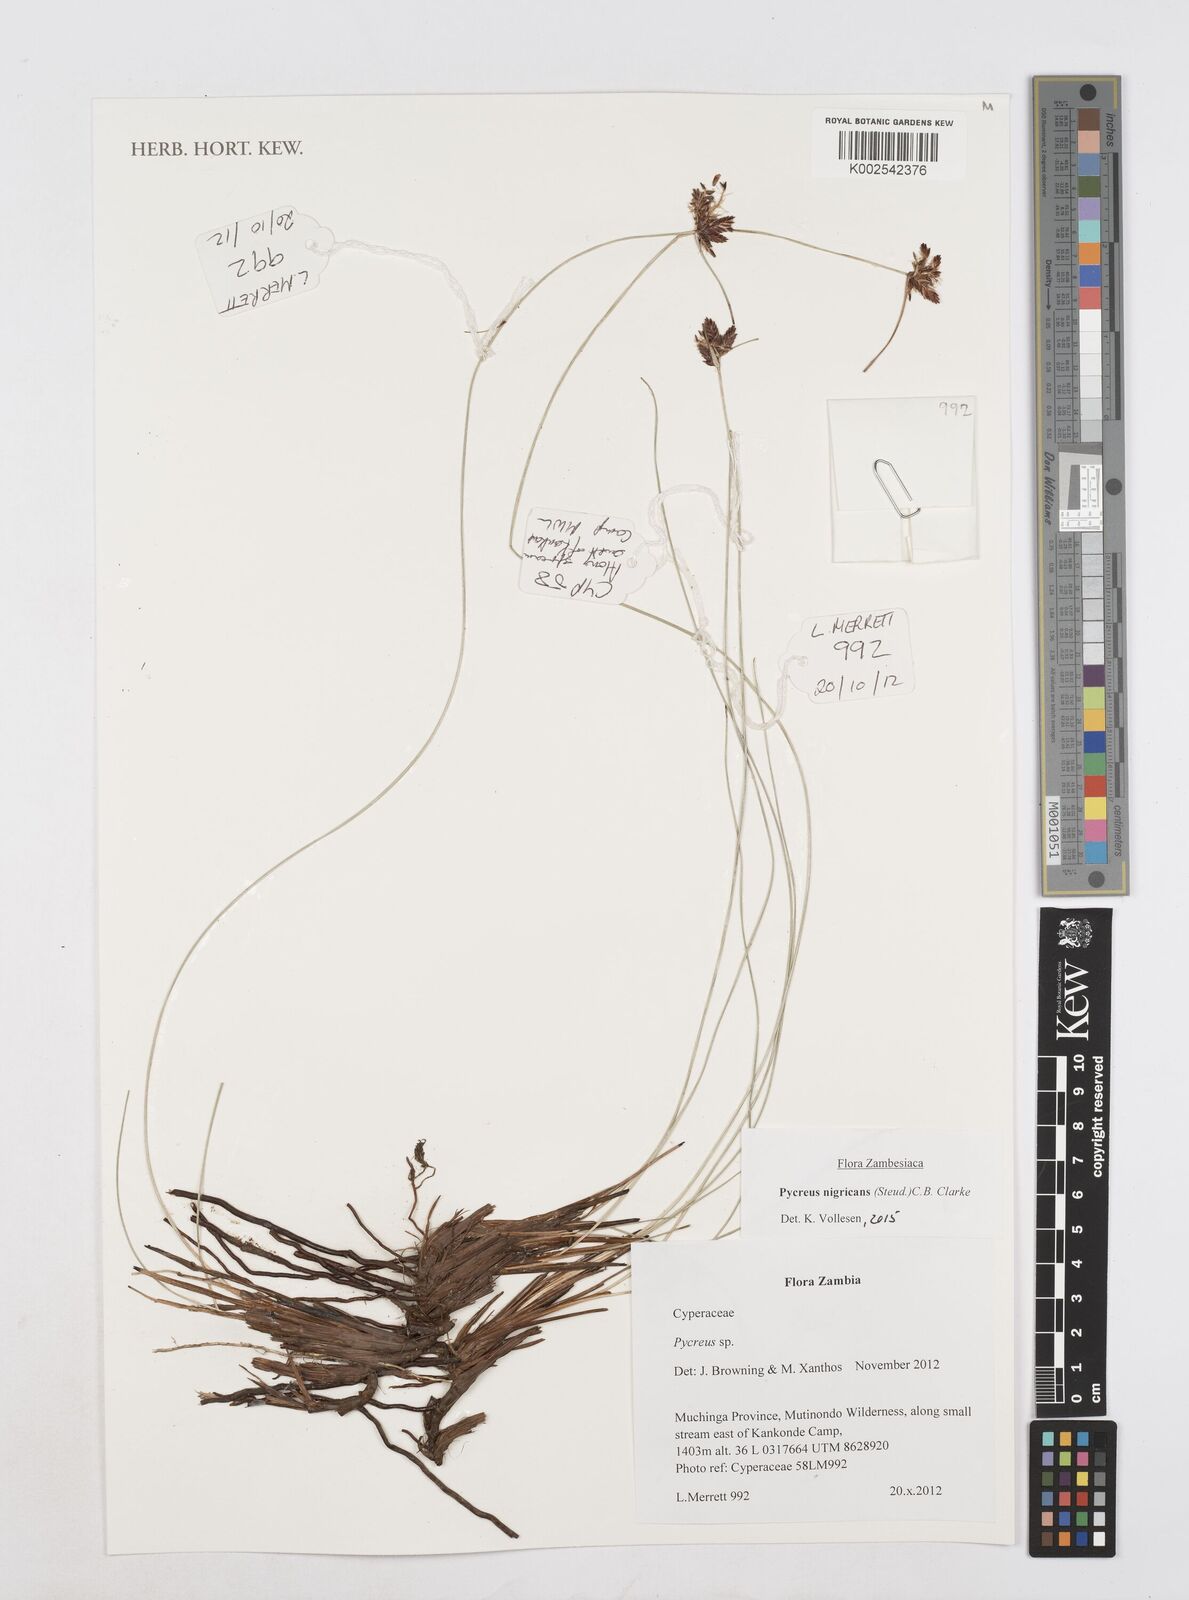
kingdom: Plantae
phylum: Tracheophyta
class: Liliopsida
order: Poales
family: Cyperaceae
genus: Cyperus
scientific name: Cyperus nigricans
